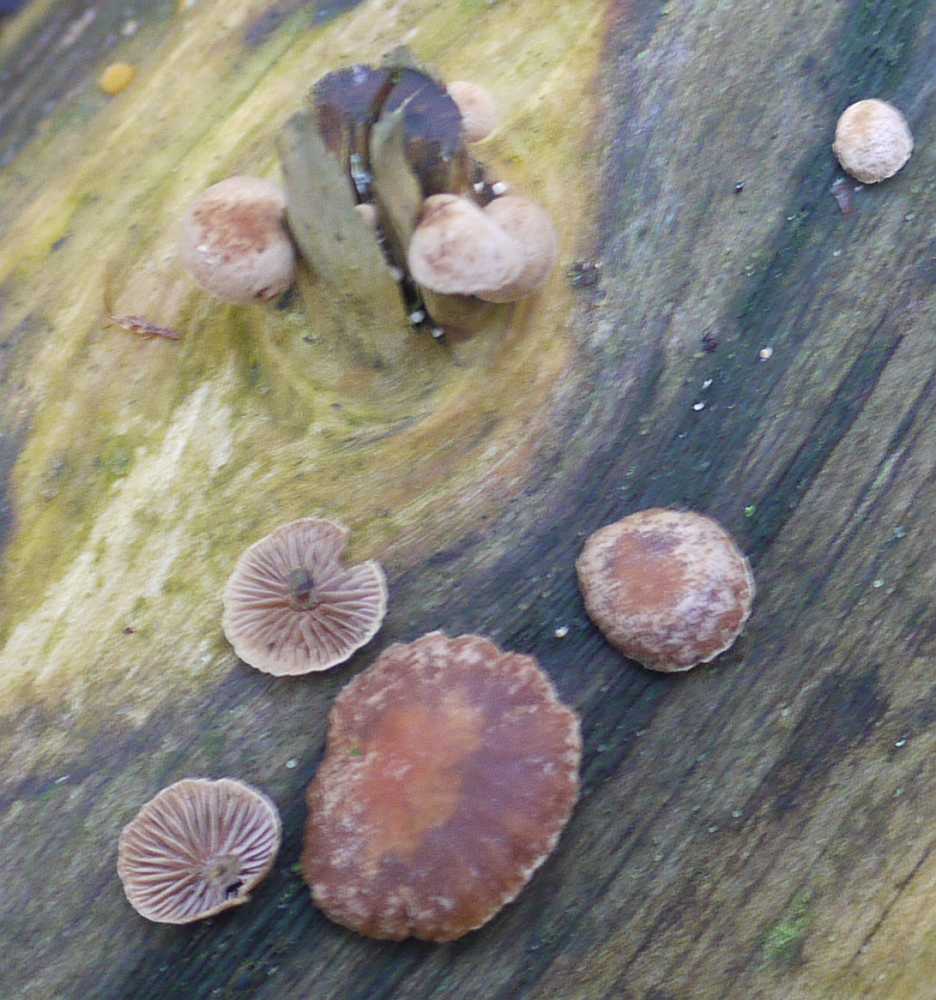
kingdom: Fungi
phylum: Basidiomycota
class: Agaricomycetes
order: Agaricales
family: Strophariaceae
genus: Deconica
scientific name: Deconica horizontalis
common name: ved-stråhat
